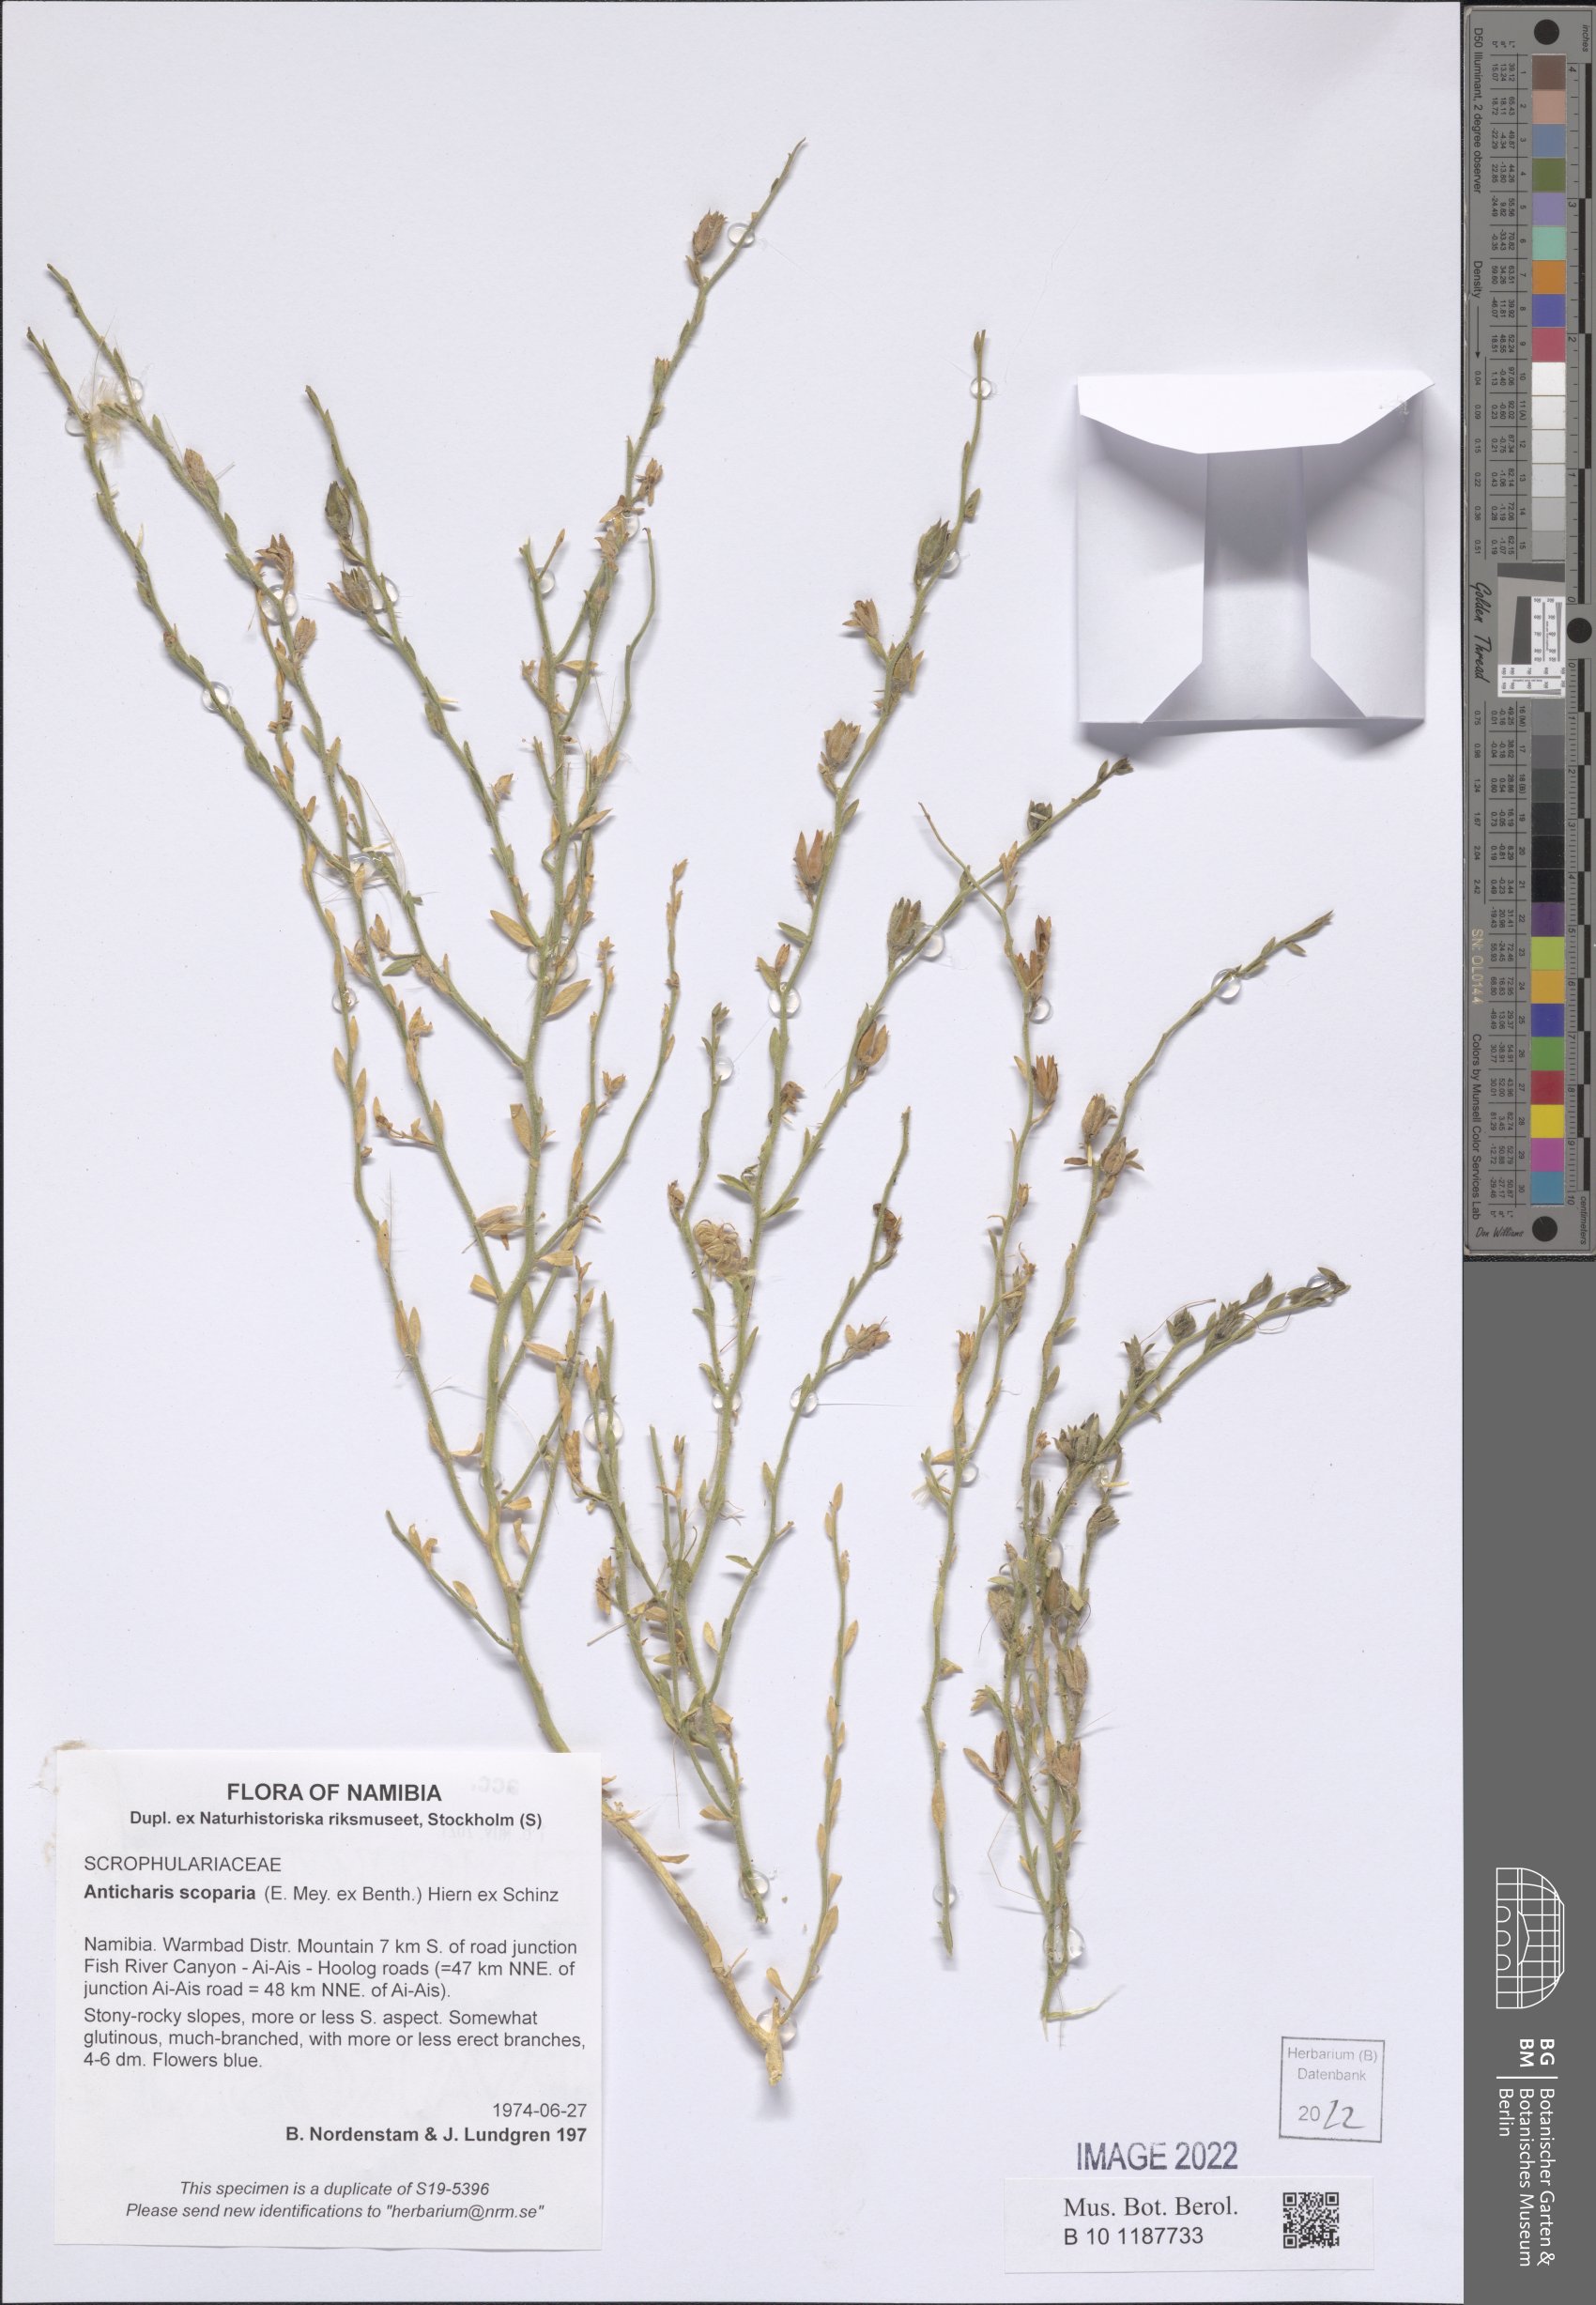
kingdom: Plantae
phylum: Tracheophyta
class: Magnoliopsida
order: Lamiales
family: Scrophulariaceae
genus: Anticharis
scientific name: Anticharis scoparia
